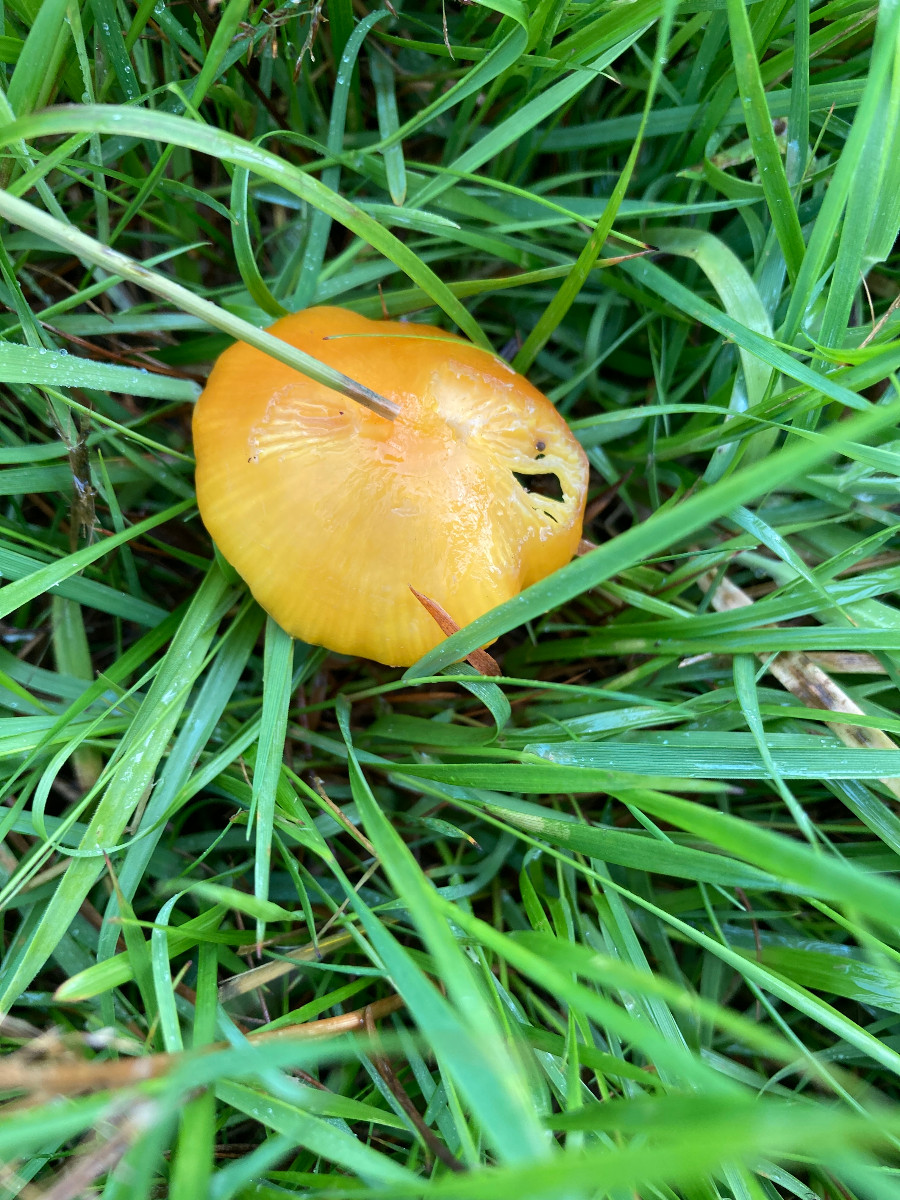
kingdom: Fungi
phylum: Basidiomycota
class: Agaricomycetes
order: Agaricales
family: Hygrophoraceae
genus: Hygrocybe
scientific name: Hygrocybe chlorophana
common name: gul vokshat
